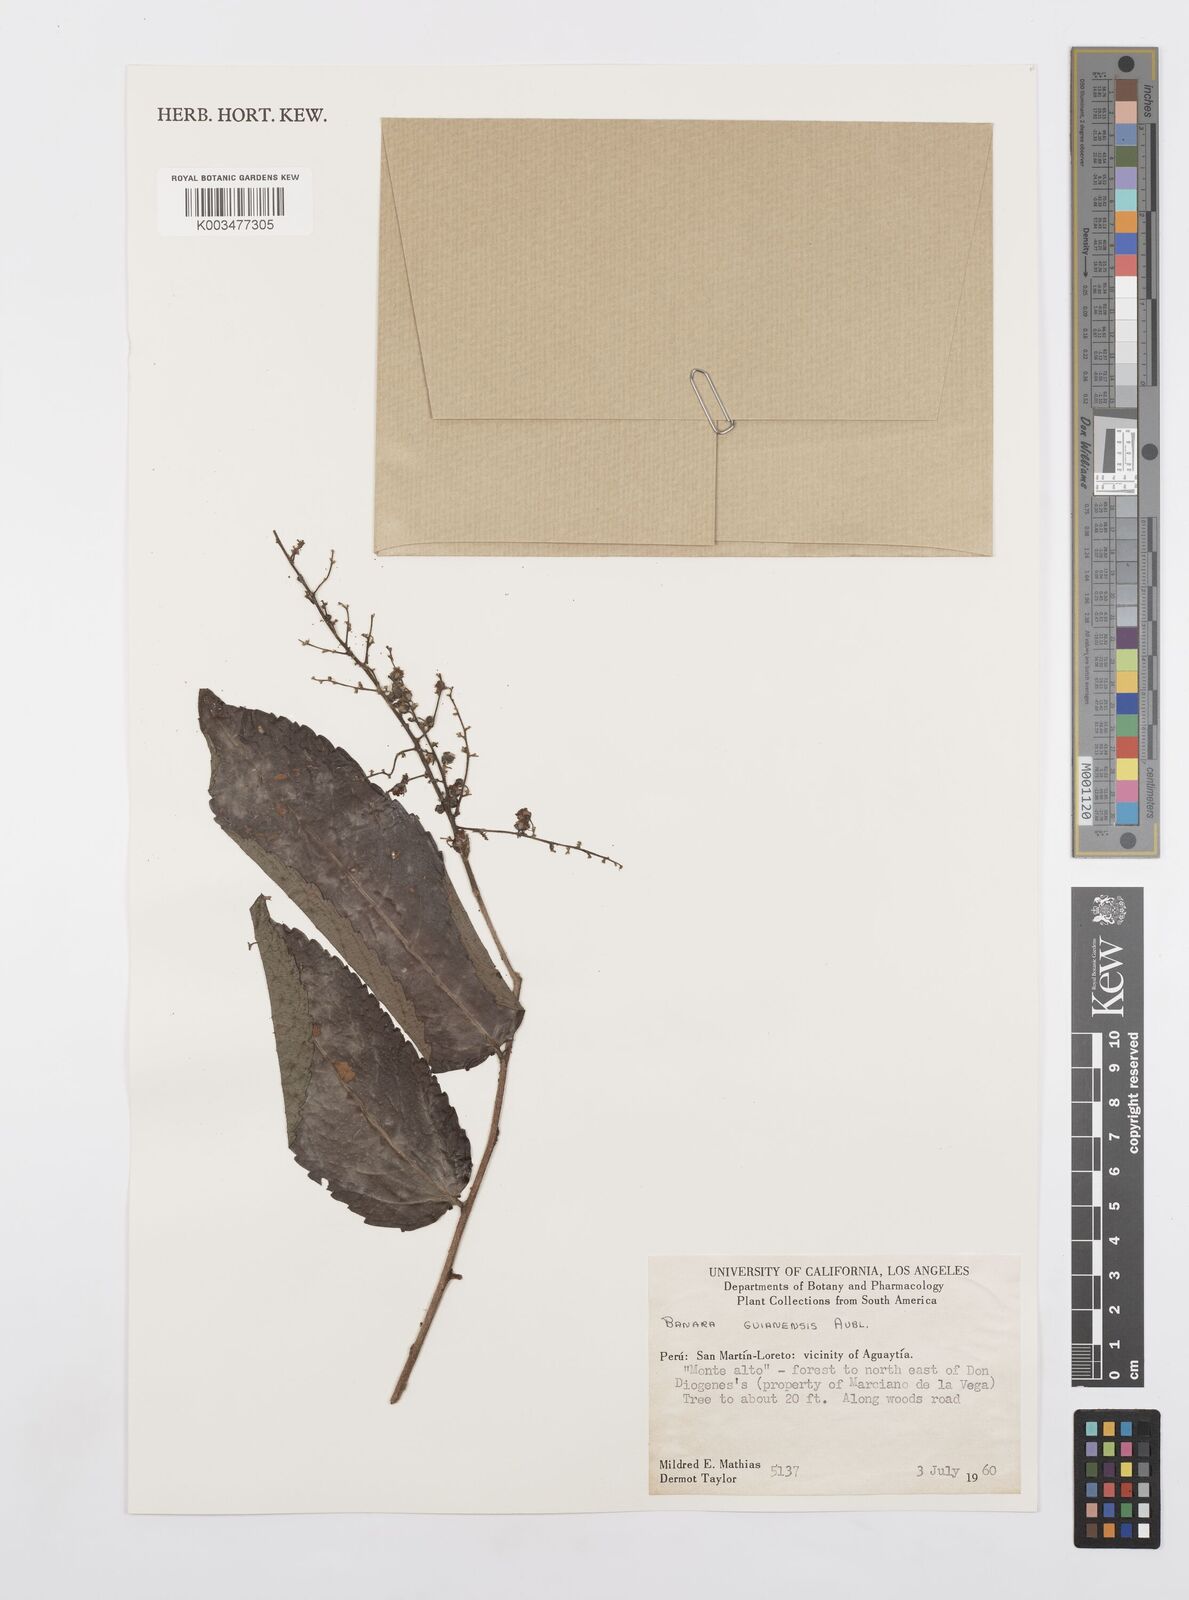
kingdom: Plantae
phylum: Tracheophyta
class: Magnoliopsida
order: Malpighiales
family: Salicaceae
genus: Banara
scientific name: Banara guianensis
